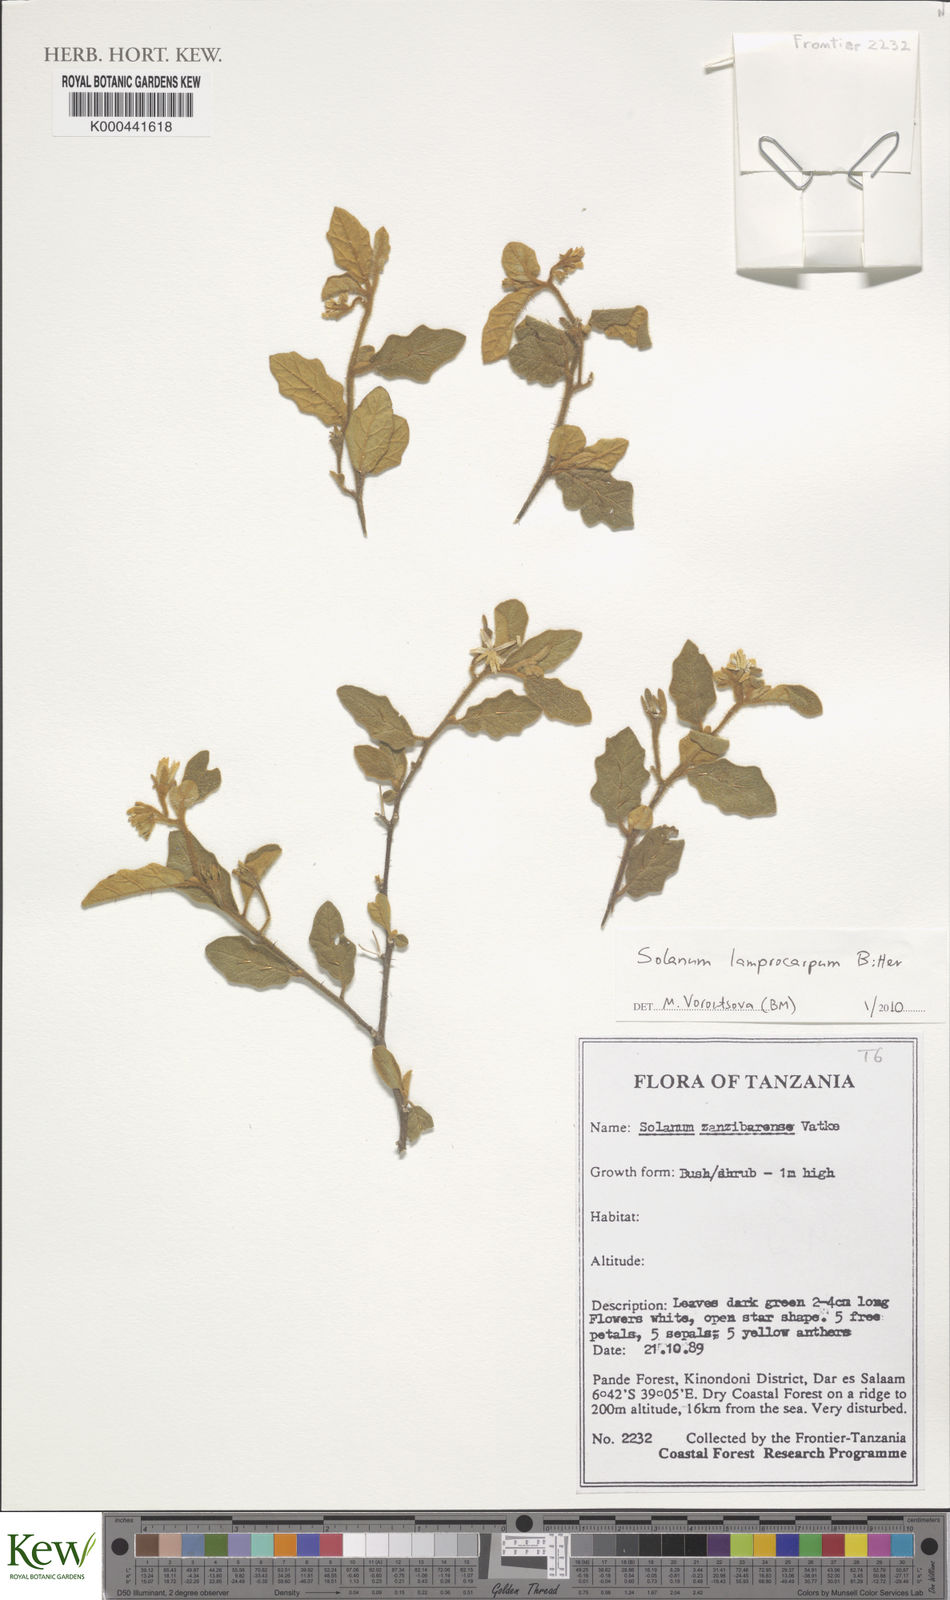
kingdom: Plantae
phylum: Tracheophyta
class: Magnoliopsida
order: Solanales
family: Solanaceae
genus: Solanum
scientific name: Solanum lamprocarpum
